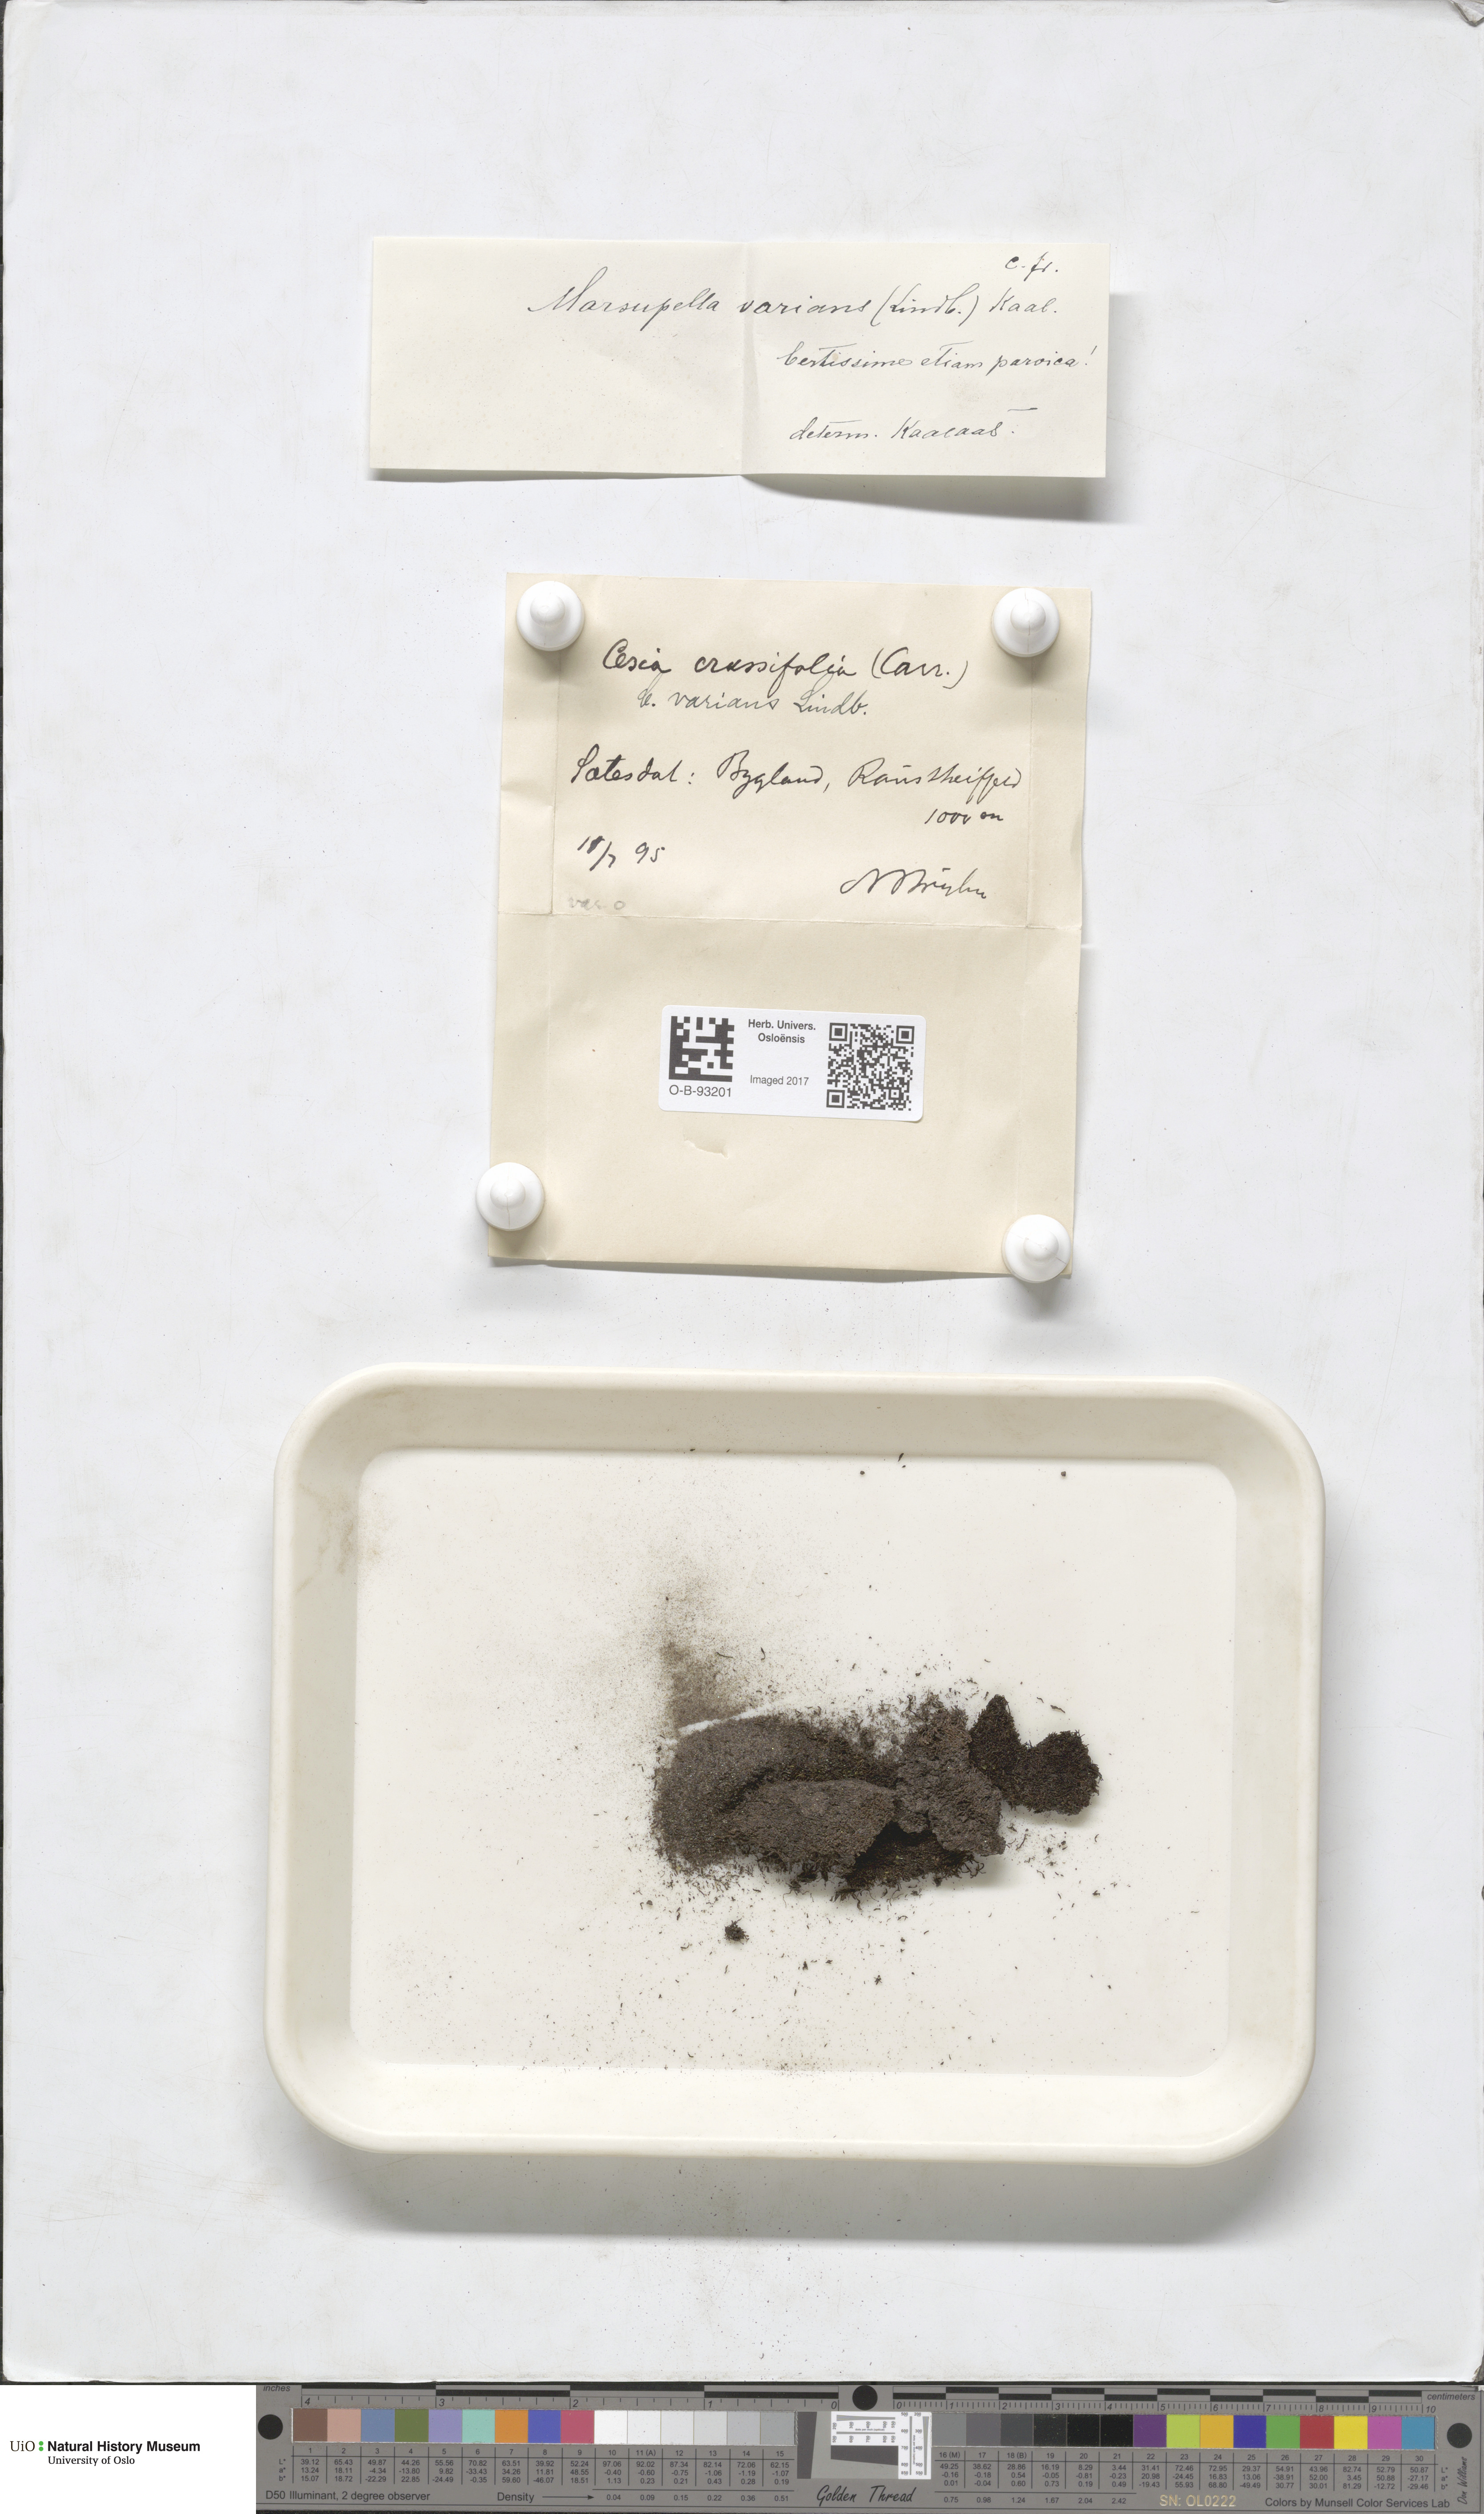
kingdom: Plantae
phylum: Marchantiophyta
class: Jungermanniopsida
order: Jungermanniales
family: Gymnomitriaceae
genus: Gymnomitrion
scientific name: Gymnomitrion brevissimum
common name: Snow rustwort
